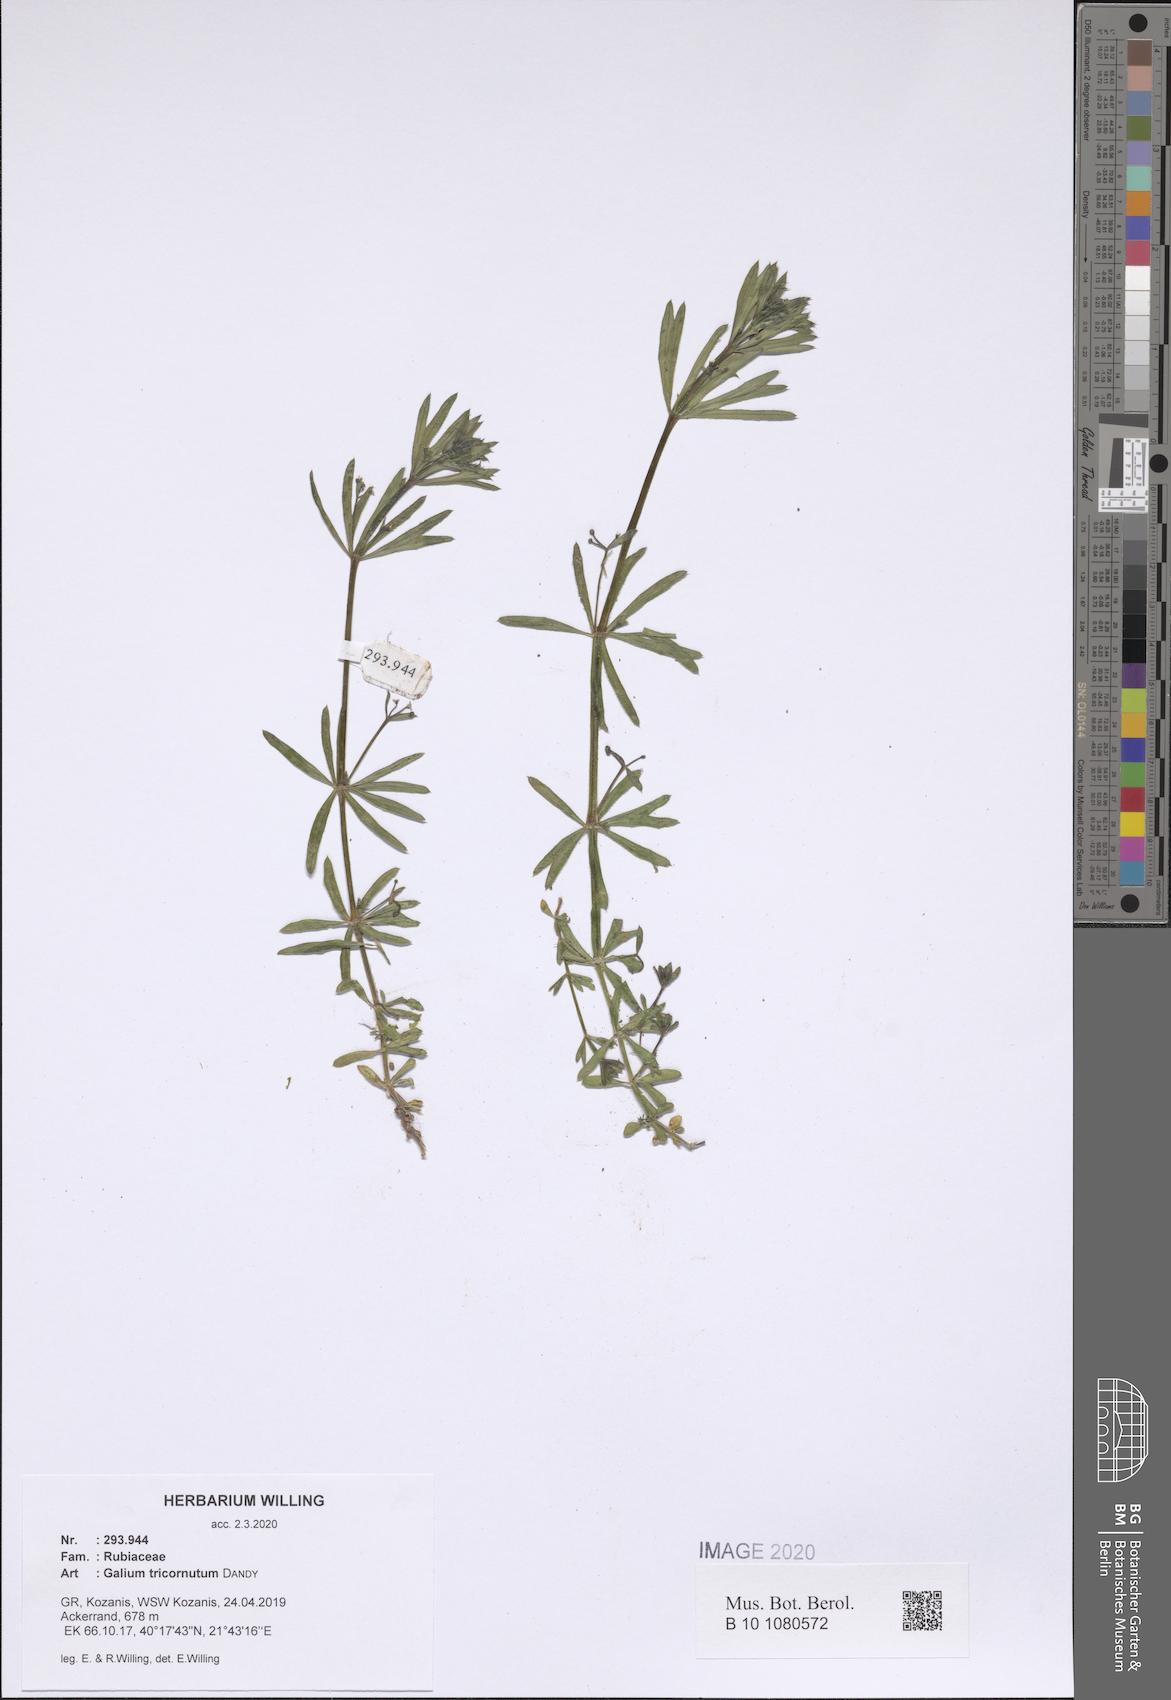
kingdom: Plantae
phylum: Tracheophyta
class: Magnoliopsida
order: Gentianales
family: Rubiaceae
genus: Galium
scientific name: Galium tricornutum
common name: Corn cleavers
